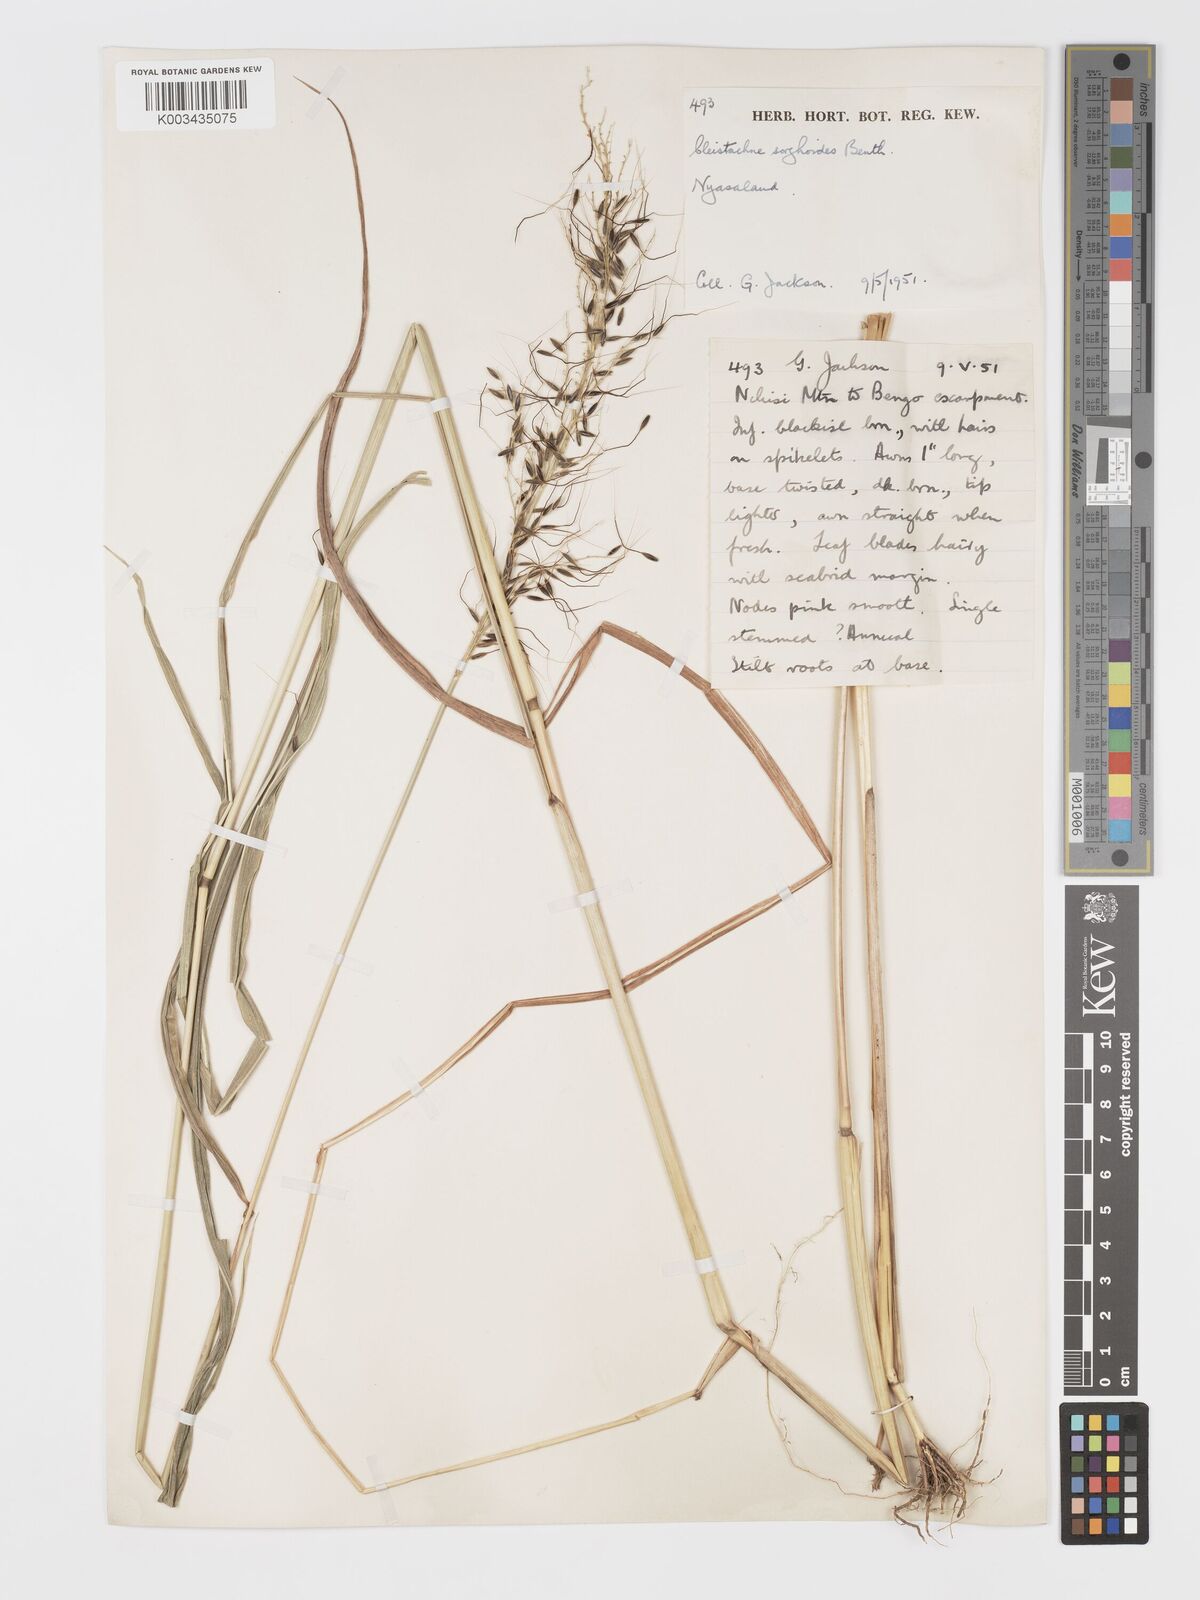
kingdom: Plantae
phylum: Tracheophyta
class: Liliopsida
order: Poales
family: Poaceae
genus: Cleistachne
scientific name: Cleistachne sorghoides
